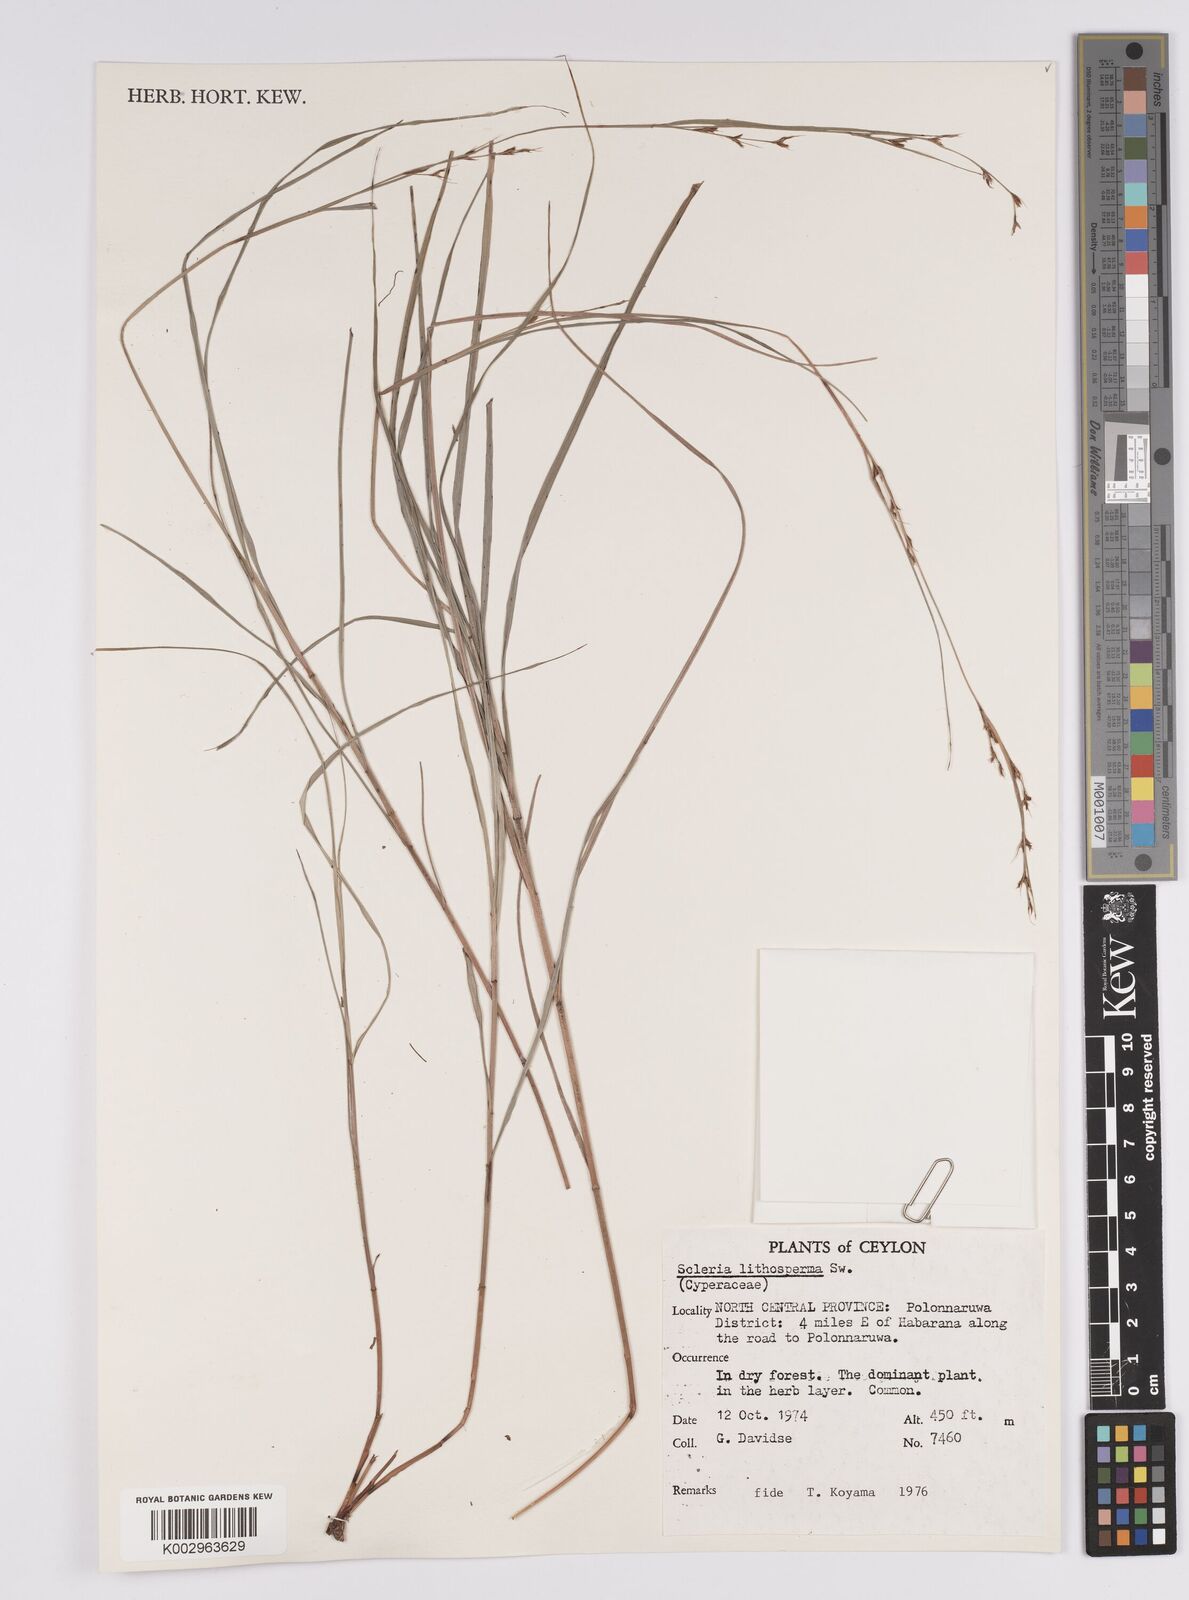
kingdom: Plantae
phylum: Tracheophyta
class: Liliopsida
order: Poales
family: Cyperaceae
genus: Scleria
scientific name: Scleria lithosperma
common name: Florida keys nut-rush
